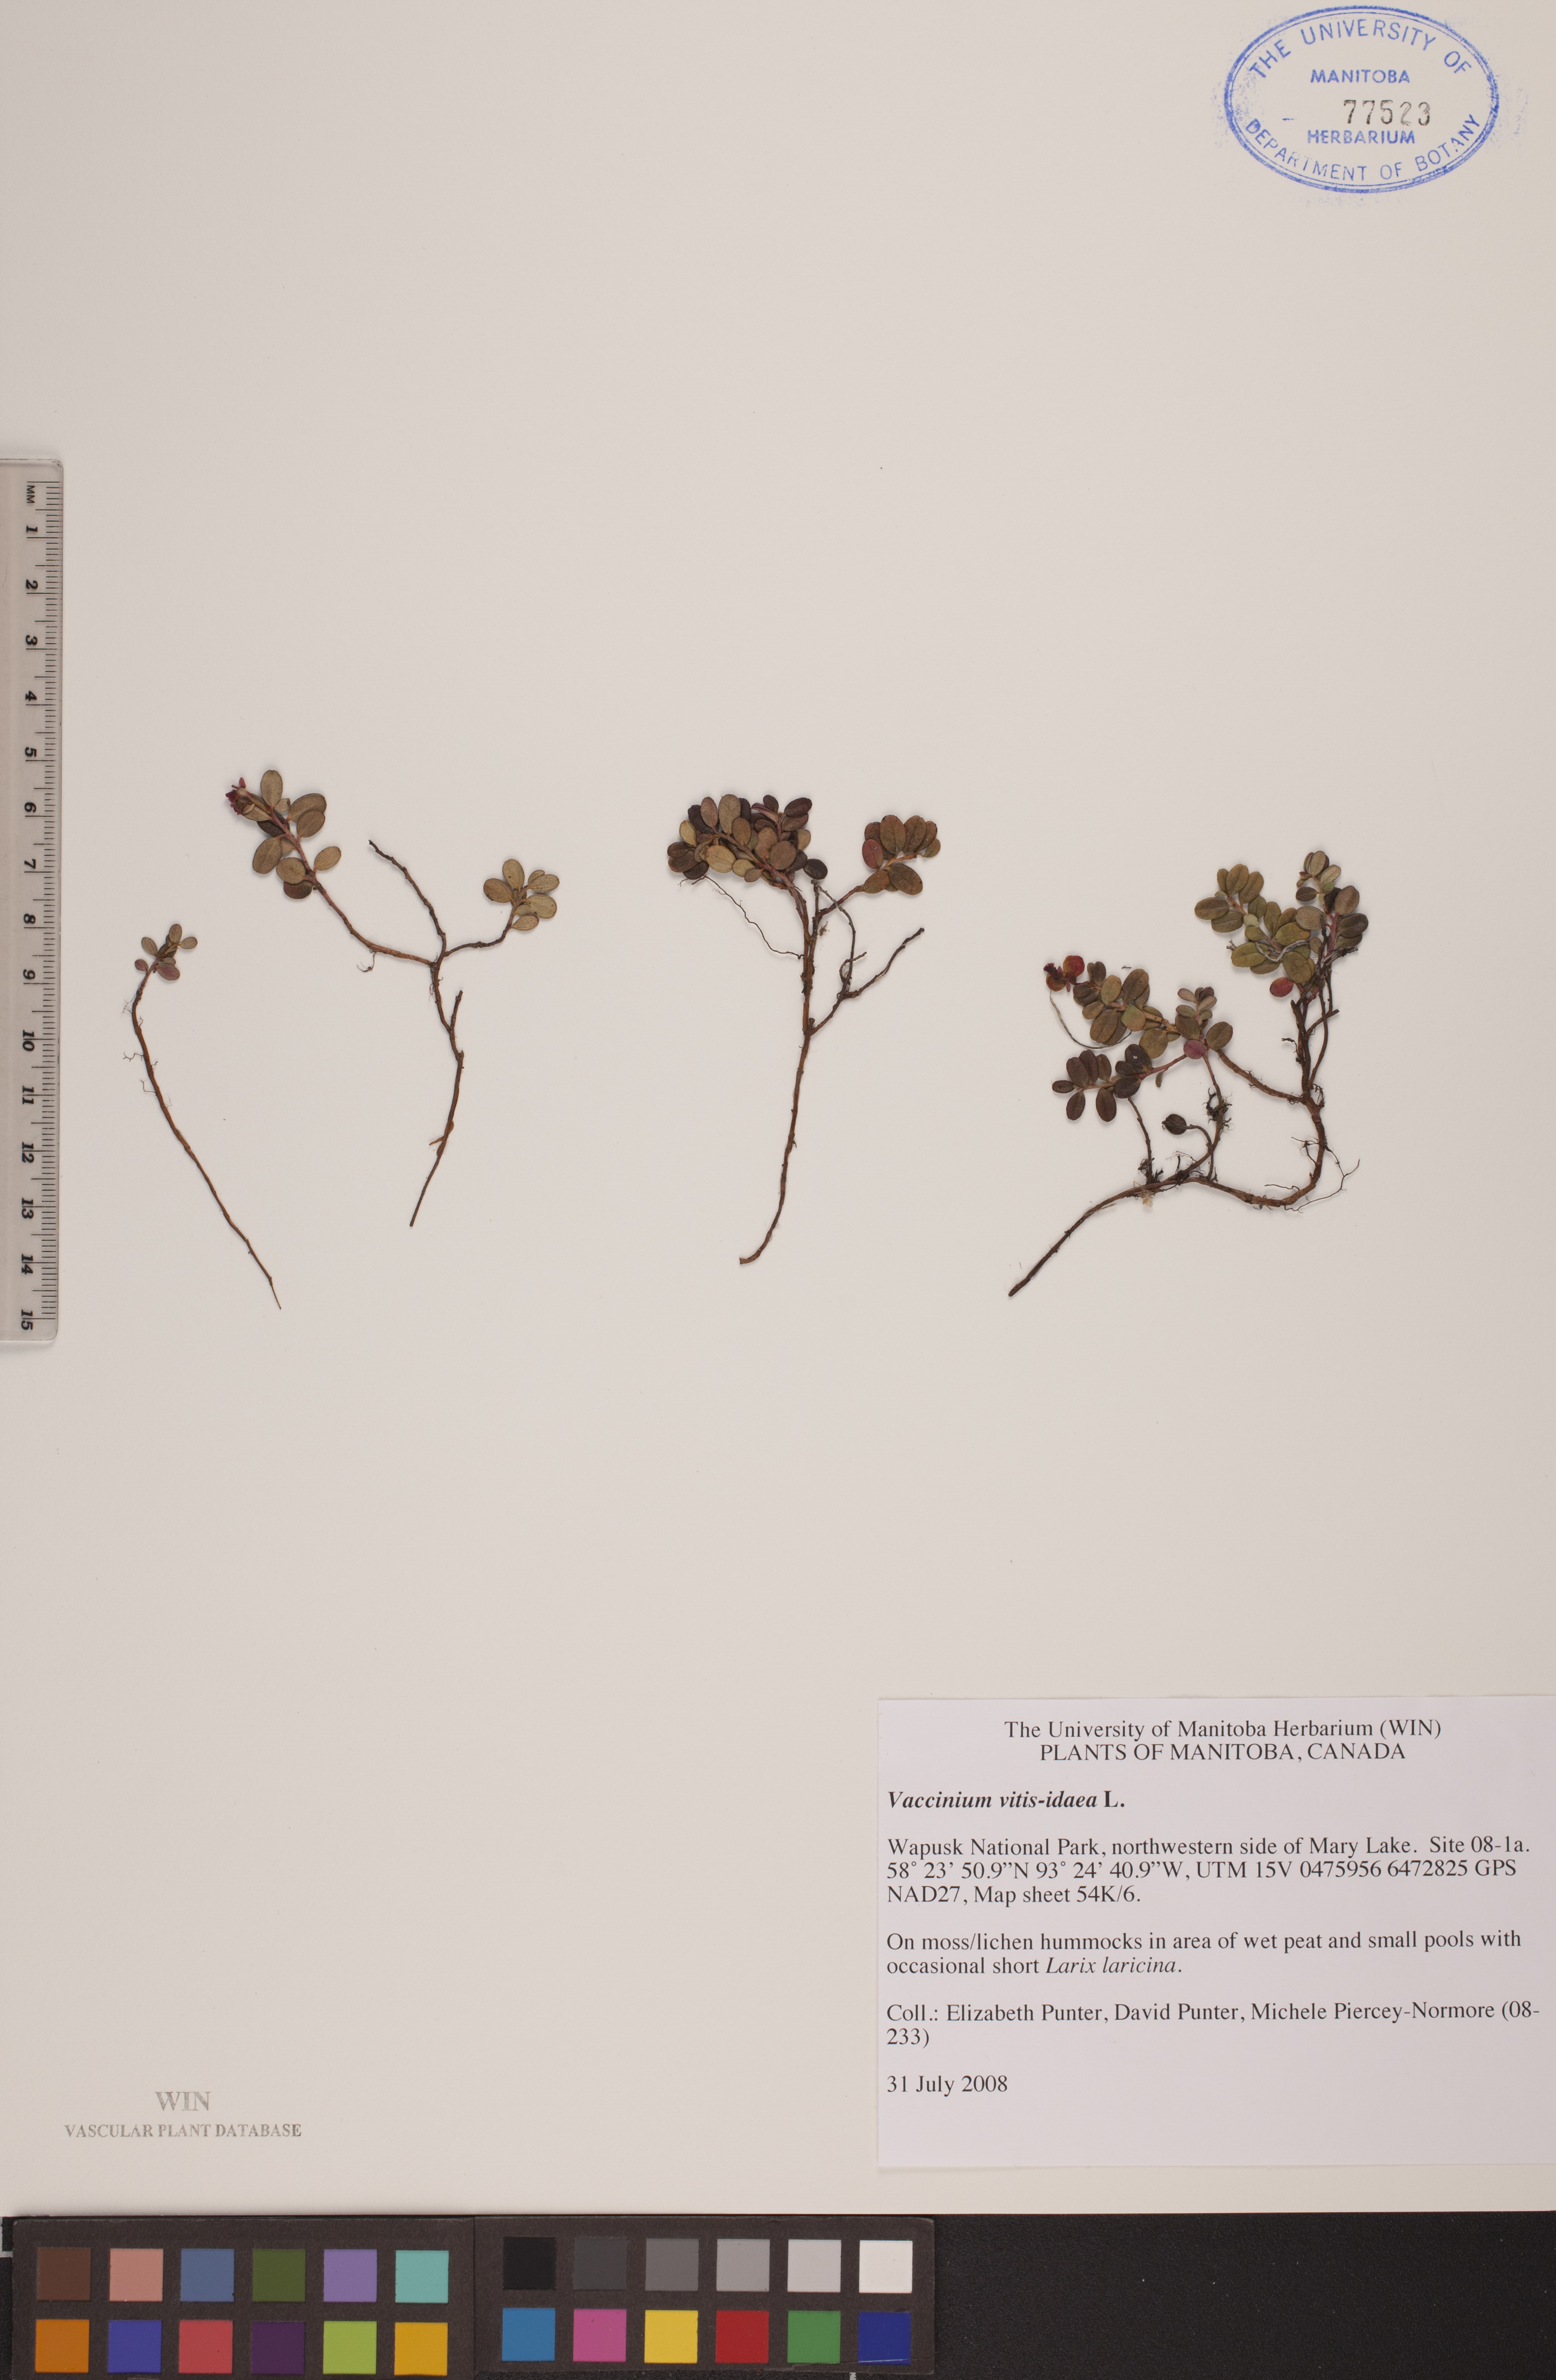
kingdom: Plantae
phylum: Tracheophyta
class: Magnoliopsida
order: Ericales
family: Ericaceae
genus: Vaccinium
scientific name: Vaccinium vitis-idaea
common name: Cowberry
